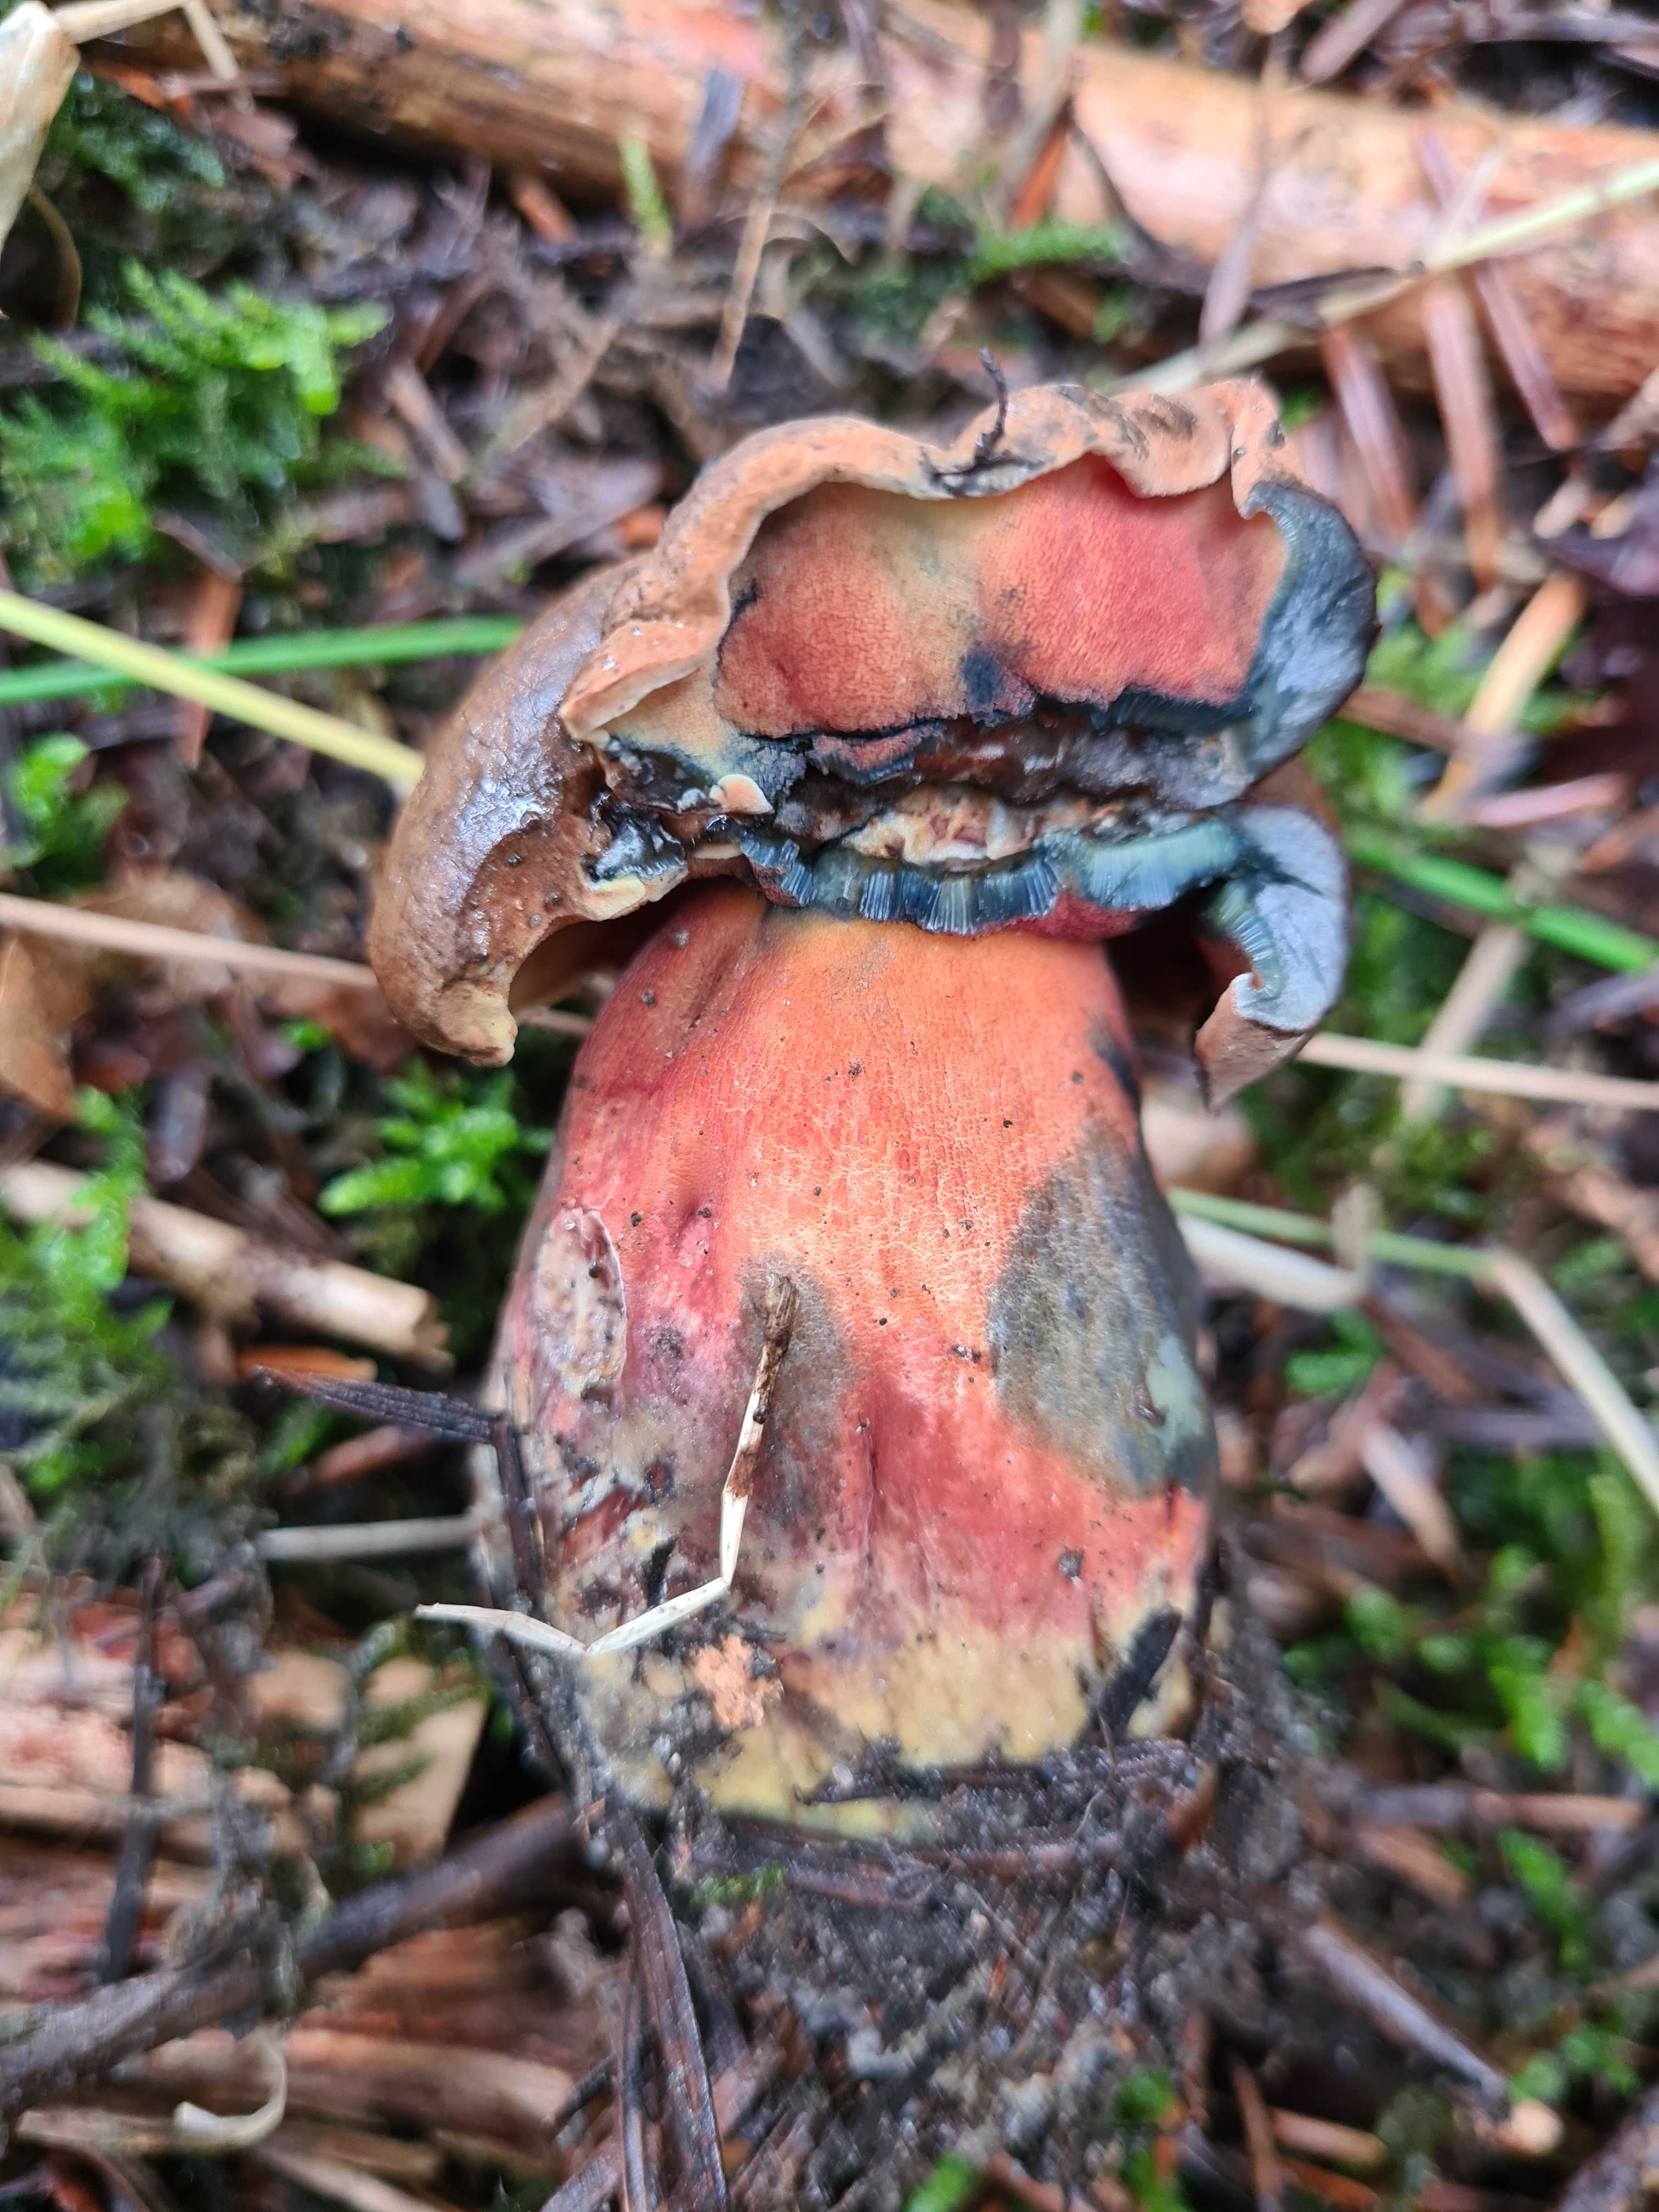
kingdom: Fungi
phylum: Basidiomycota
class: Agaricomycetes
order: Boletales
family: Boletaceae
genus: Neoboletus
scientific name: Neoboletus
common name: indigorørhat
